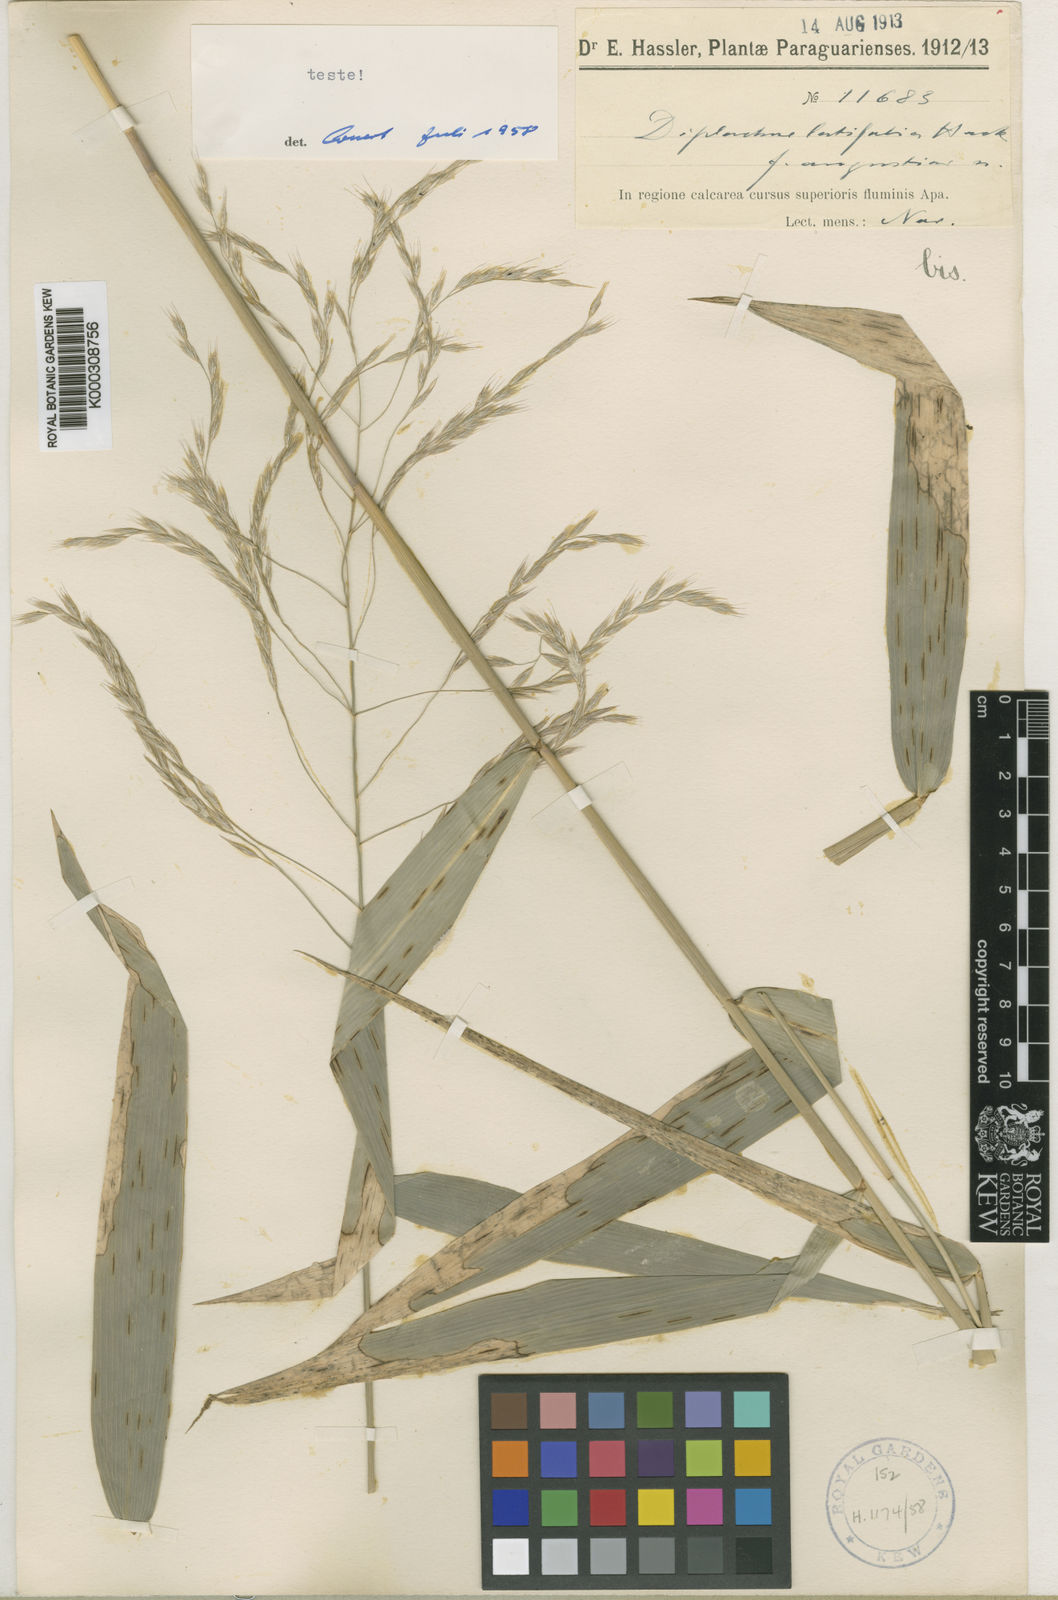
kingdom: Plantae
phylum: Tracheophyta
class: Liliopsida
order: Poales
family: Poaceae
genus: Gouinia
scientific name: Gouinia latifolia
